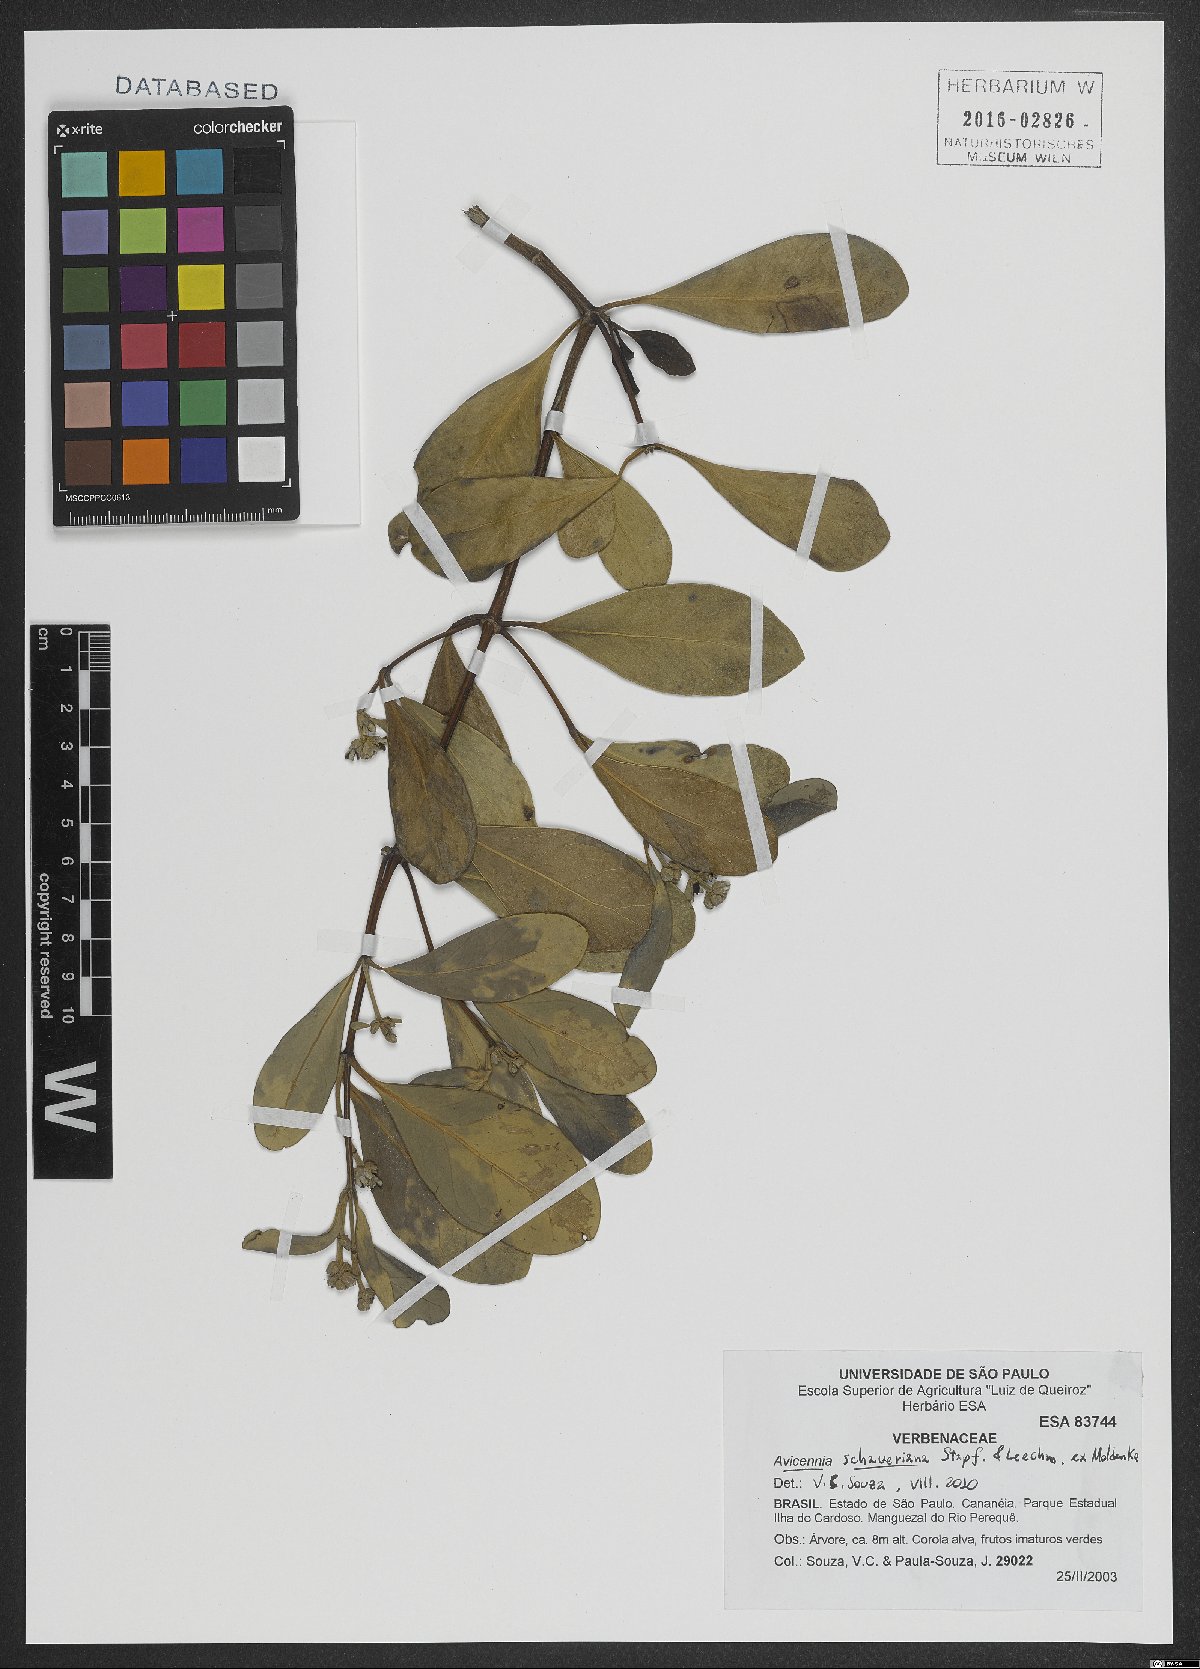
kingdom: Plantae
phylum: Tracheophyta
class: Magnoliopsida
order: Lamiales
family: Acanthaceae
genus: Avicennia
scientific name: Avicennia schaueriana
